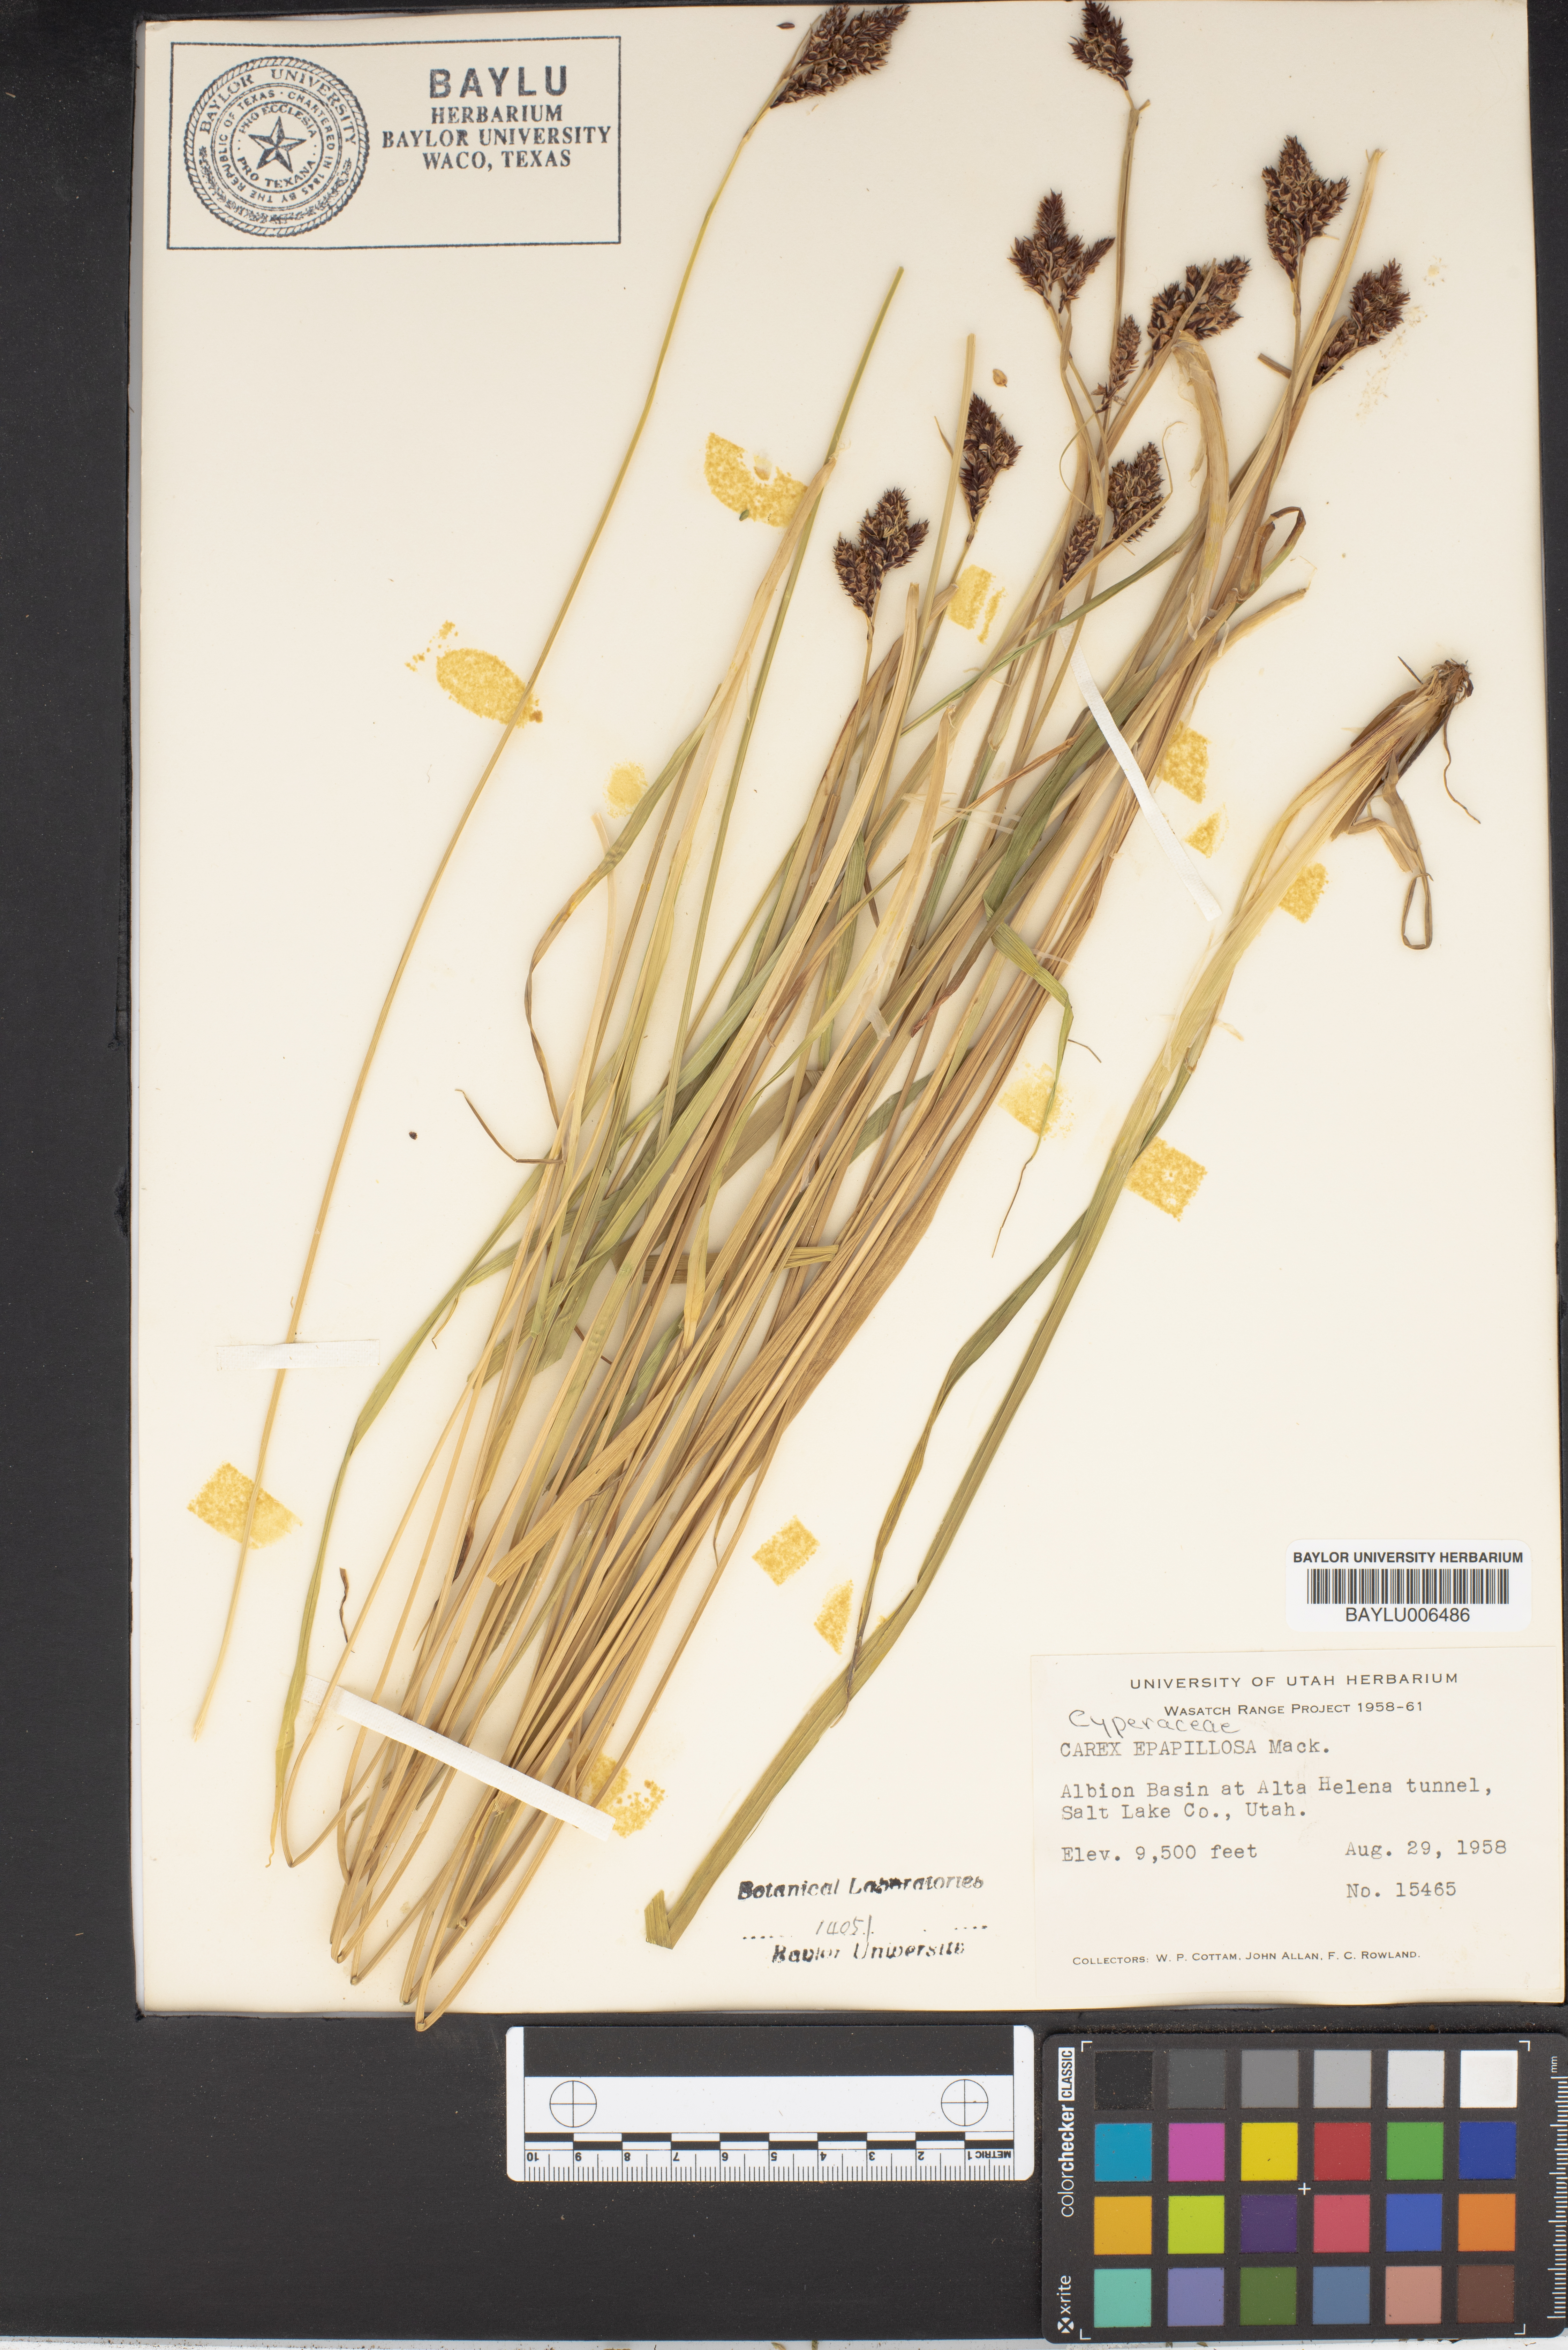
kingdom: Plantae
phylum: Tracheophyta
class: Liliopsida
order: Poales
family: Cyperaceae
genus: Carex
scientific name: Carex heteroneura
